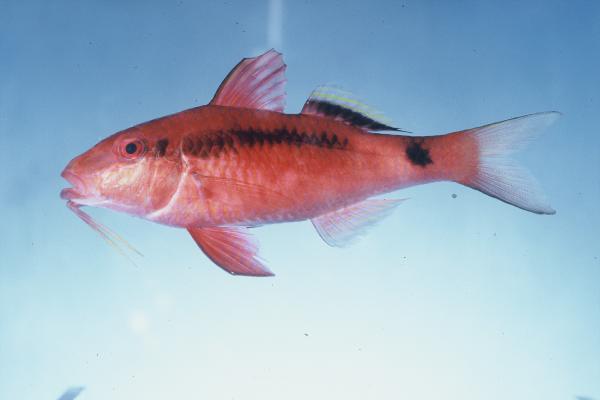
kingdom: Animalia
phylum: Chordata
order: Perciformes
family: Mullidae
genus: Parupeneus
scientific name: Parupeneus macronemus
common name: Long-barbel goatfish
